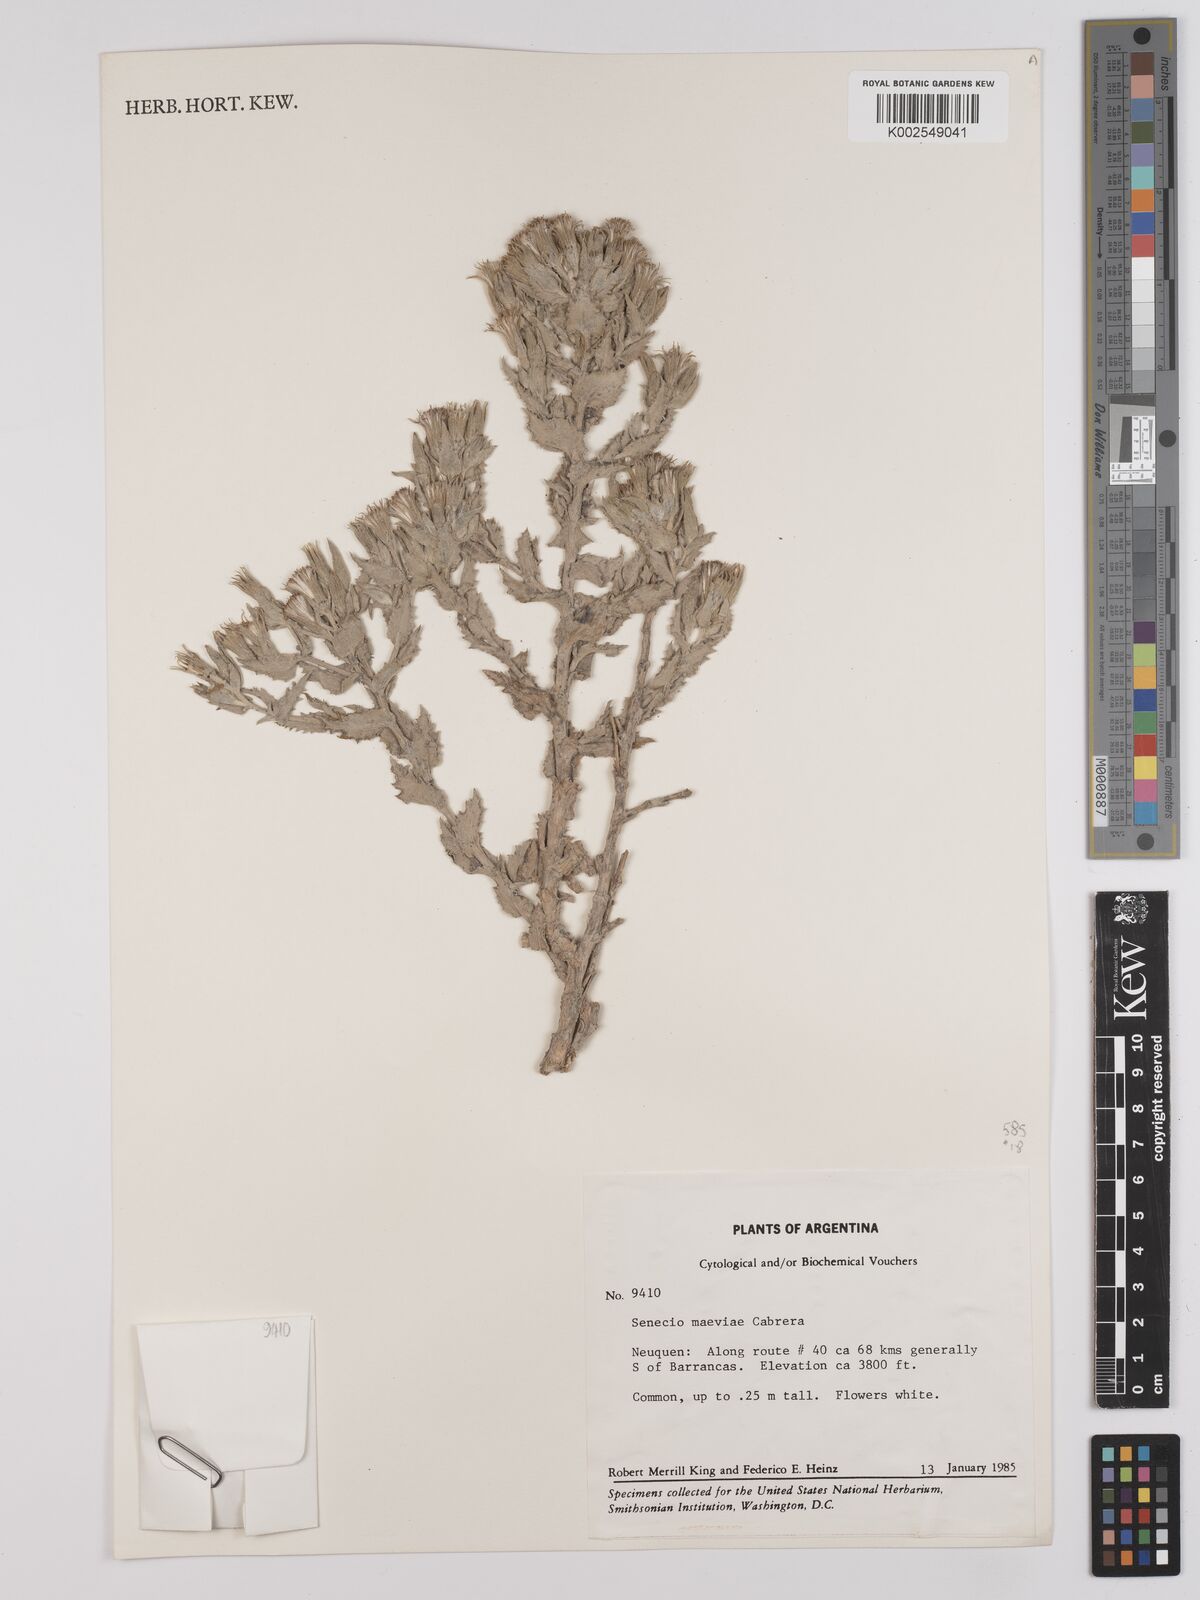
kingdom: Plantae
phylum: Tracheophyta
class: Magnoliopsida
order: Asterales
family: Asteraceae
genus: Senecio
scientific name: Senecio maeviae
